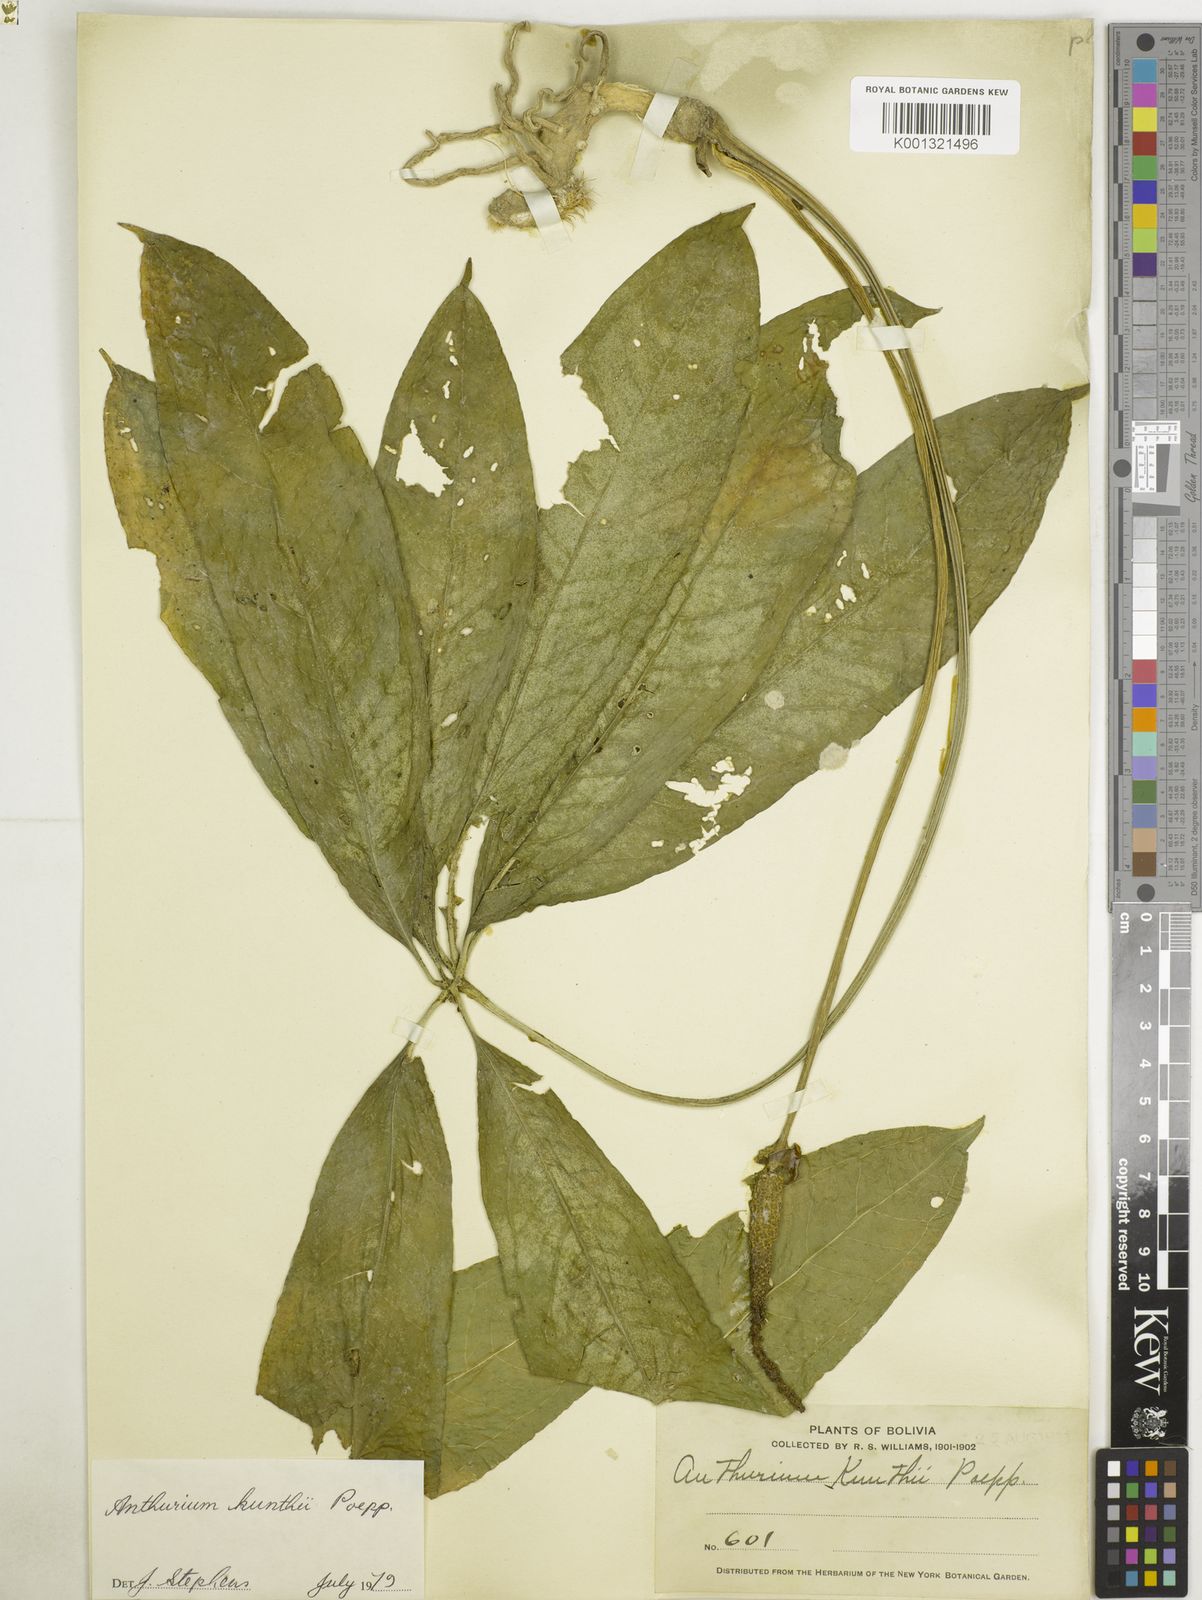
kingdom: Plantae
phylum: Tracheophyta
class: Liliopsida
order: Alismatales
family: Araceae
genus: Anthurium
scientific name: Anthurium kunthii
